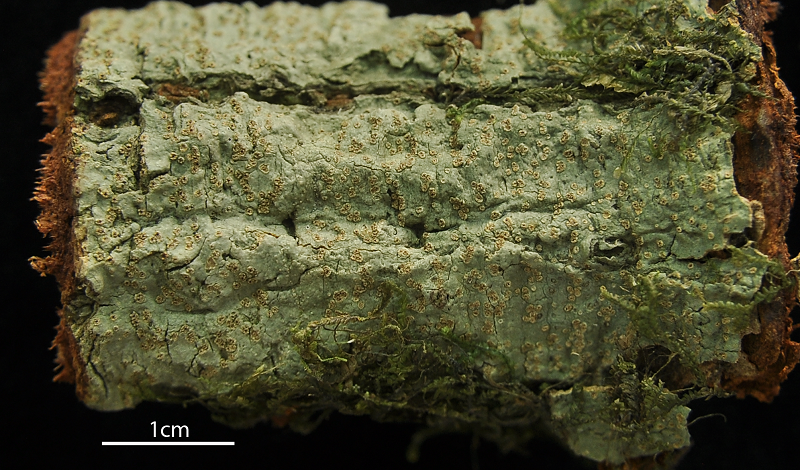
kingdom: Fungi
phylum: Ascomycota
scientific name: Ascomycota
